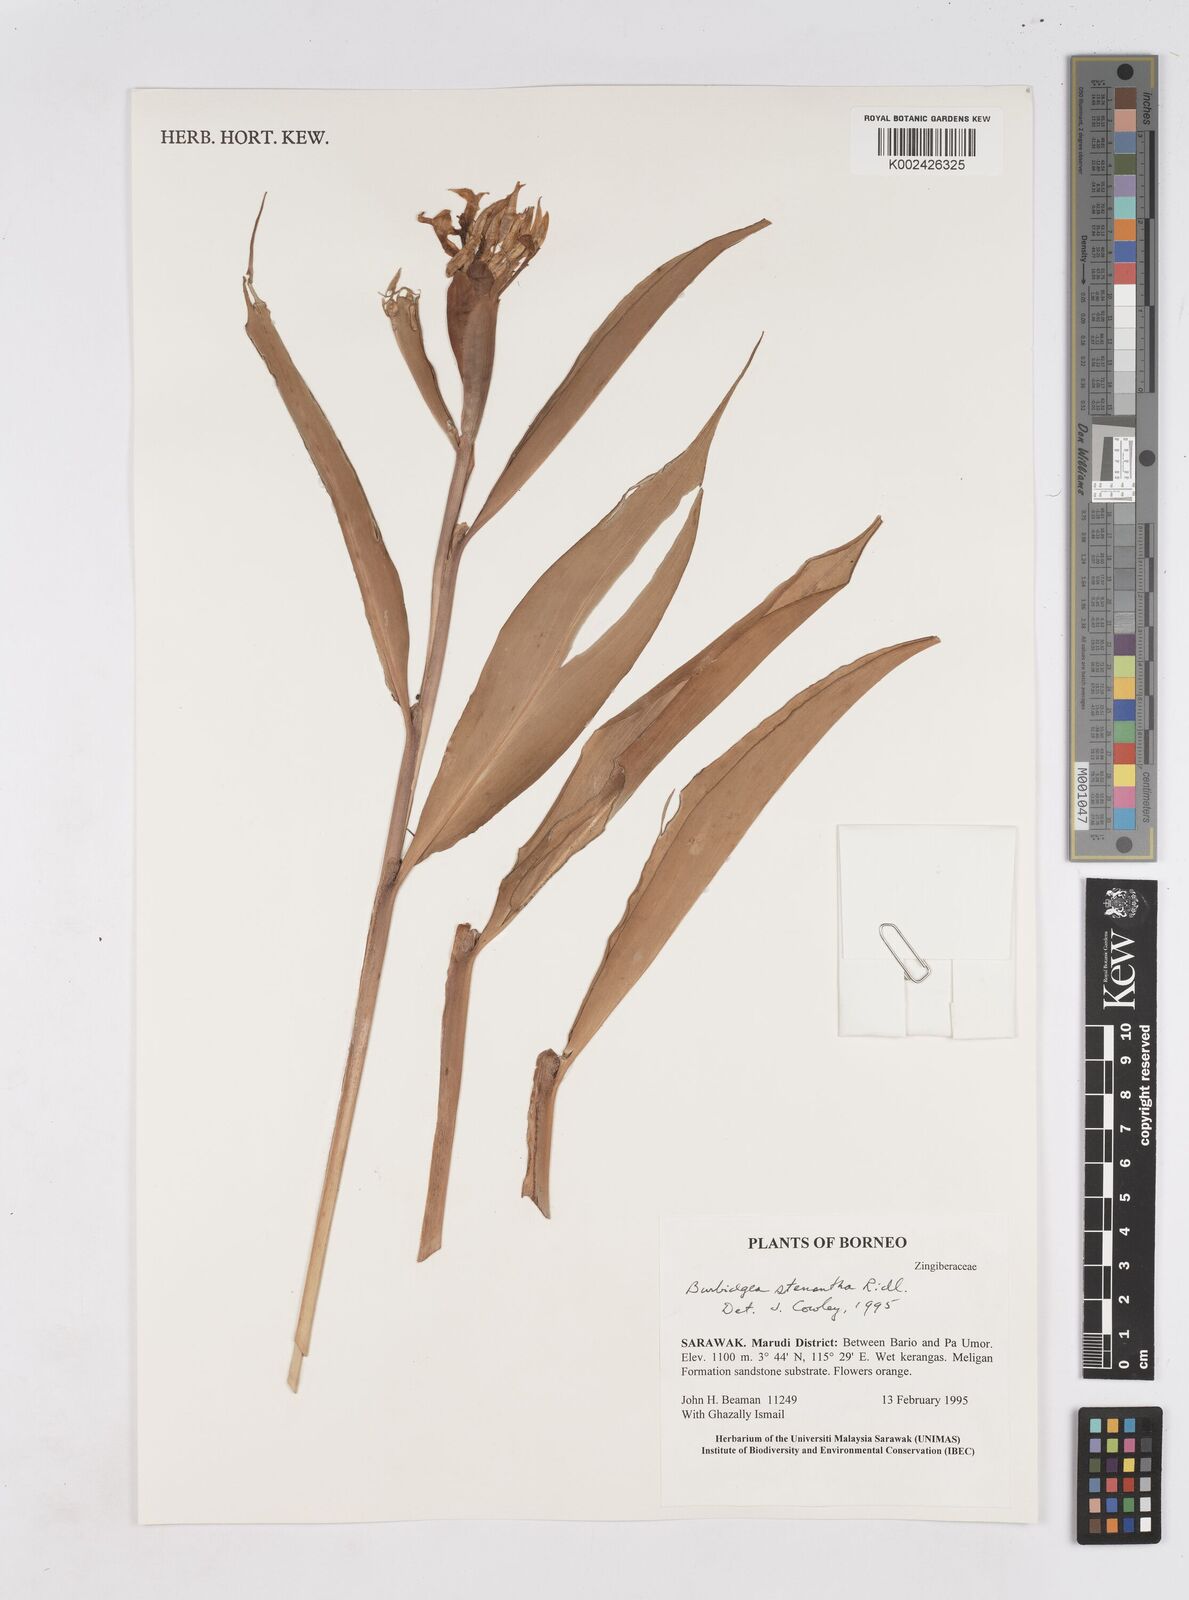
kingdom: Plantae
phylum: Tracheophyta
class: Liliopsida
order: Zingiberales
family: Zingiberaceae
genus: Burbidgea
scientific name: Burbidgea stenantha
